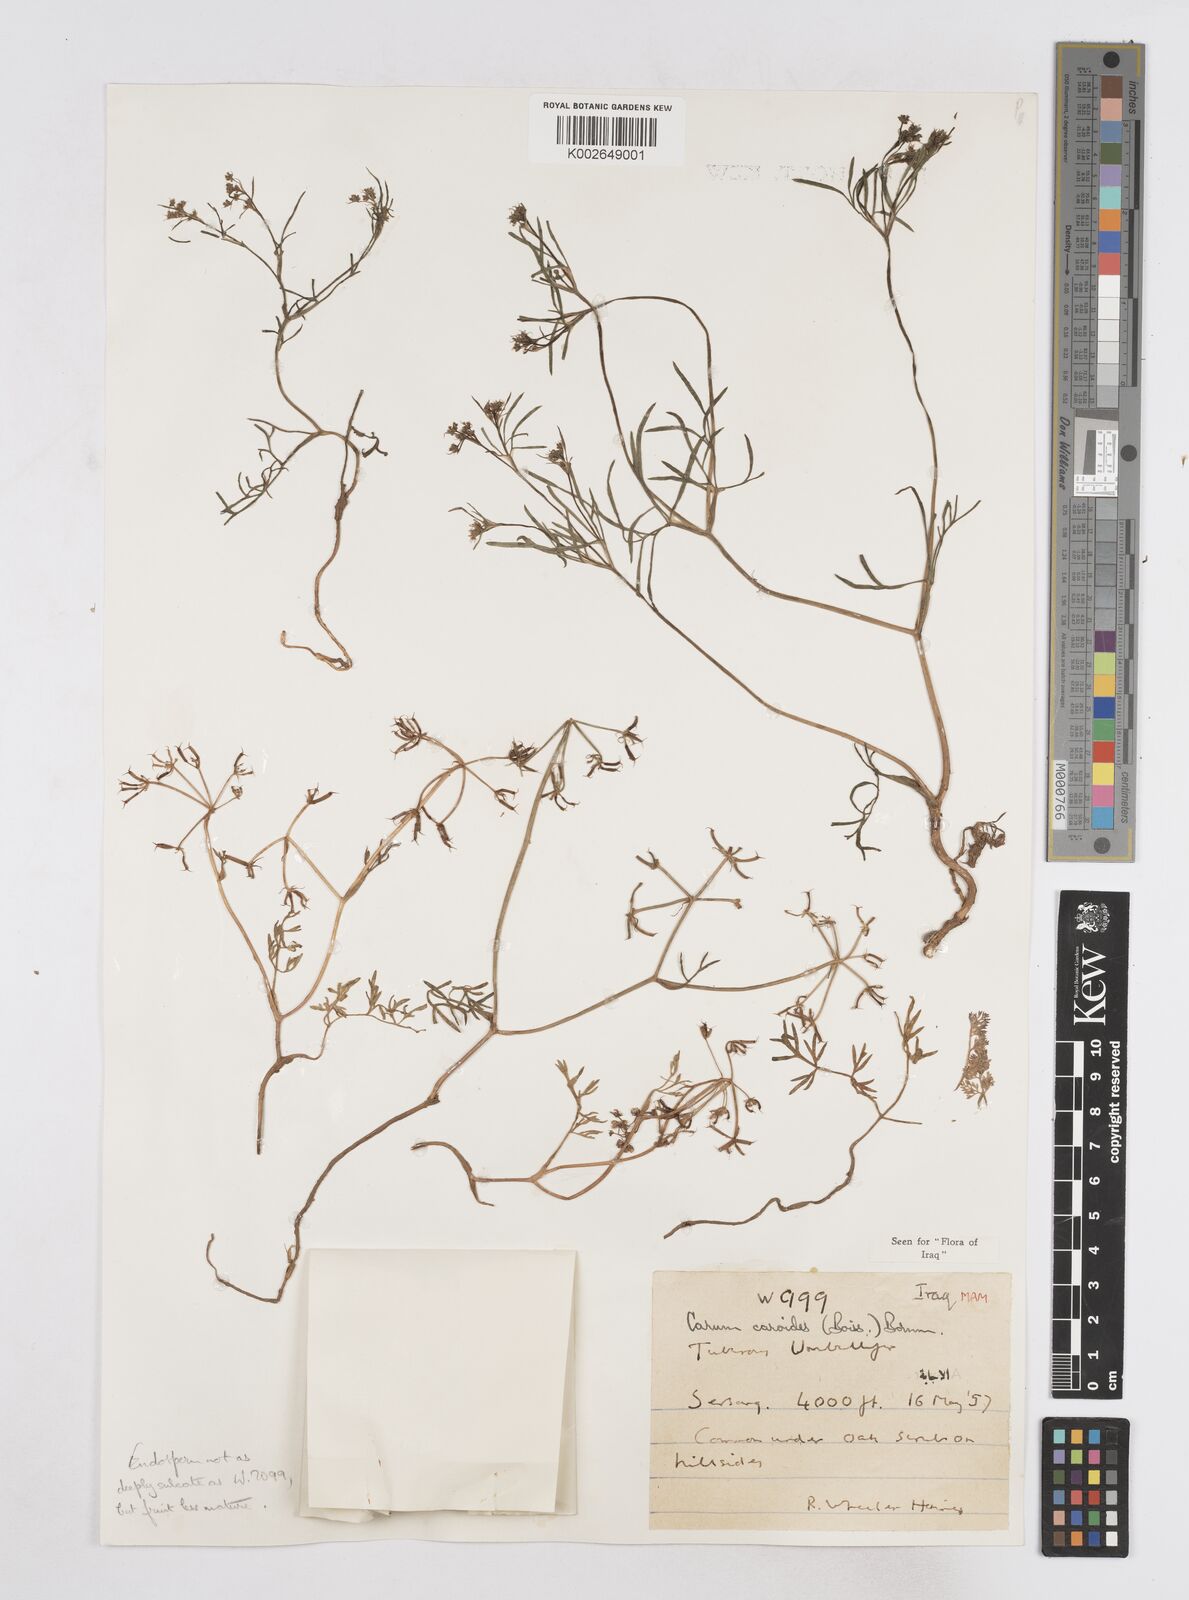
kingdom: Plantae
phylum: Tracheophyta
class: Magnoliopsida
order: Apiales
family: Apiaceae
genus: Elwendia
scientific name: Elwendia caroides
